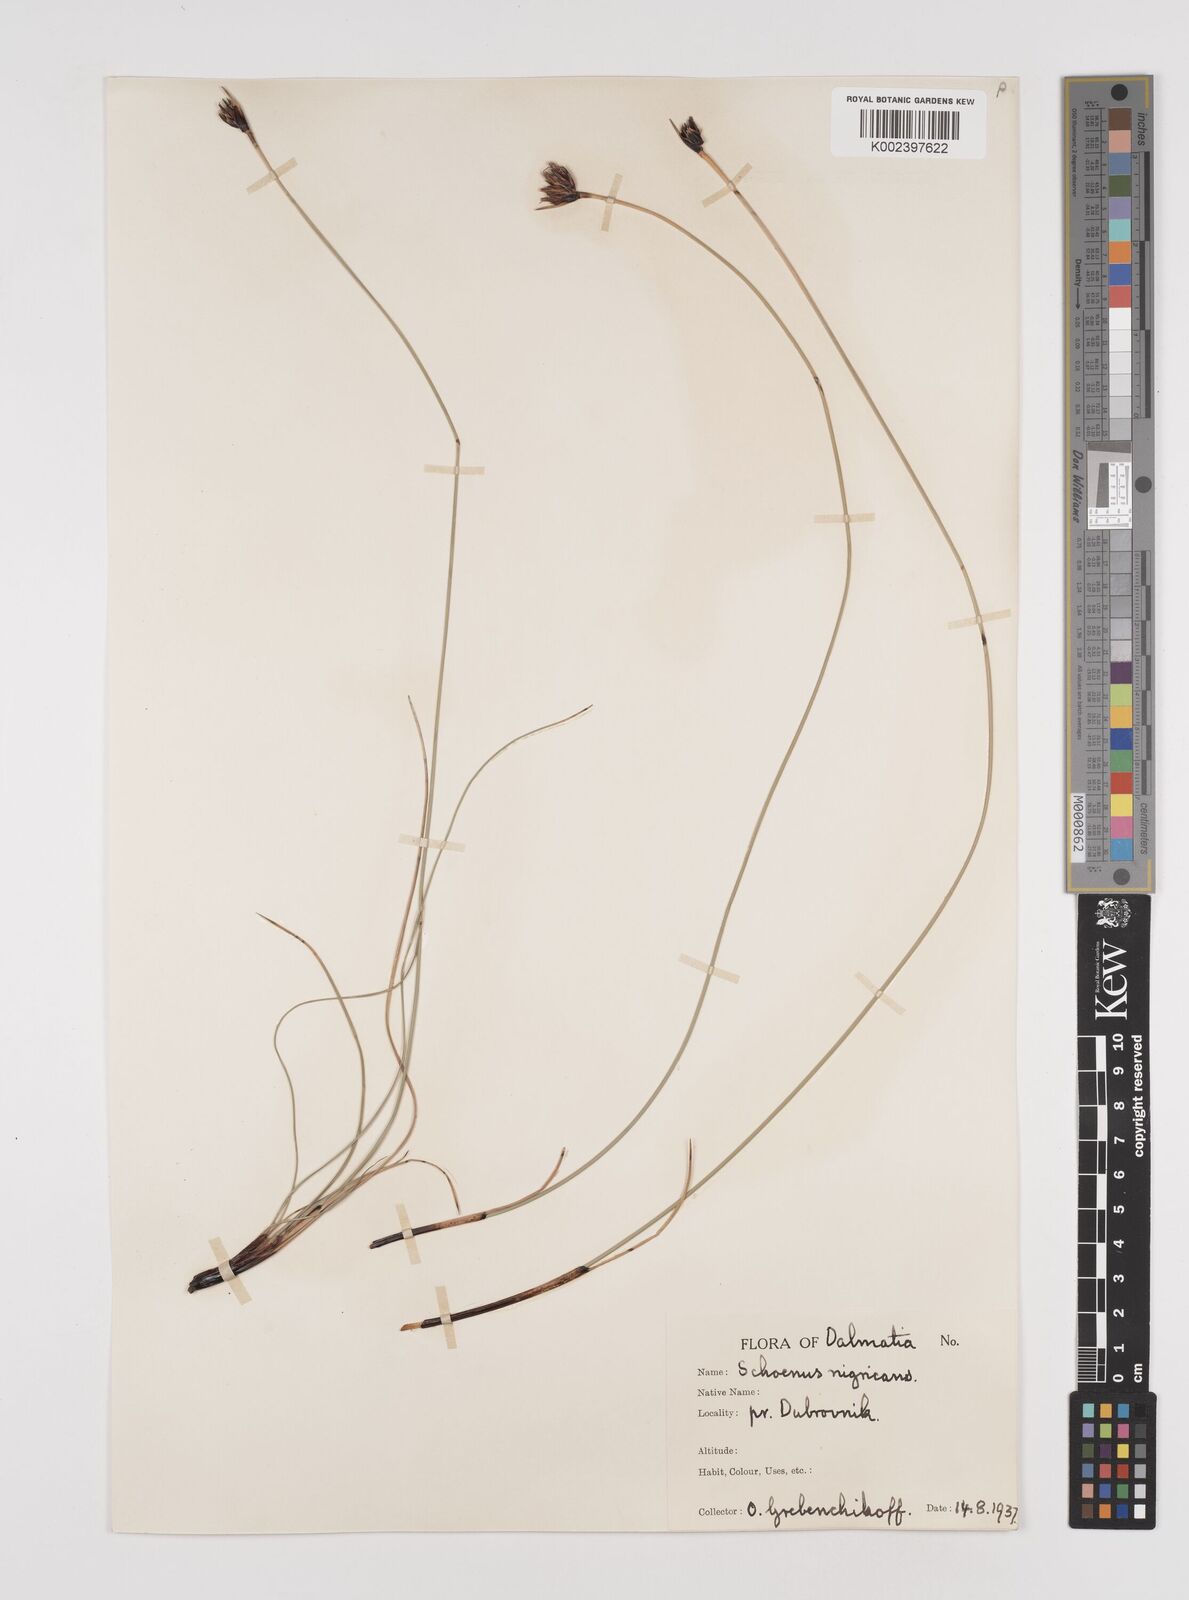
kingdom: Plantae
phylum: Tracheophyta
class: Liliopsida
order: Poales
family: Cyperaceae
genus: Schoenus
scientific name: Schoenus nigricans
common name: Black bog-rush
